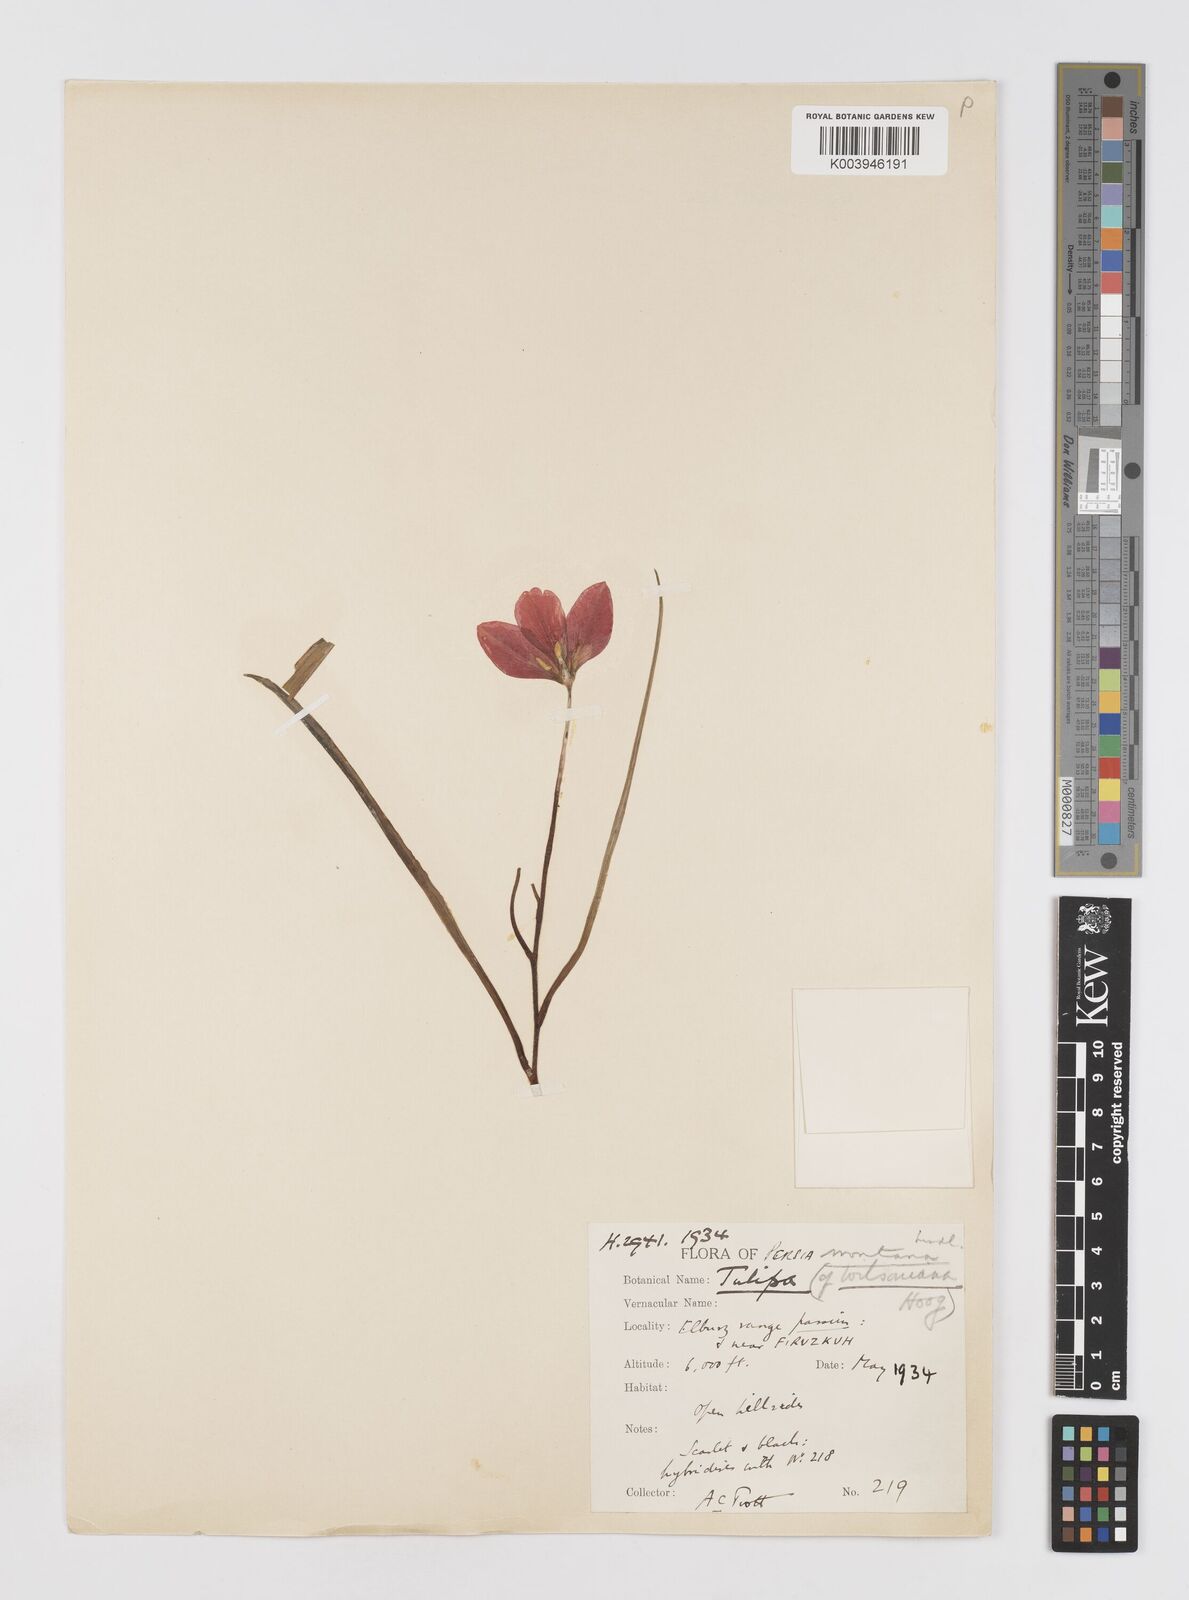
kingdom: Plantae
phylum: Tracheophyta
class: Liliopsida
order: Liliales
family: Liliaceae
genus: Tulipa
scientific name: Tulipa montana
